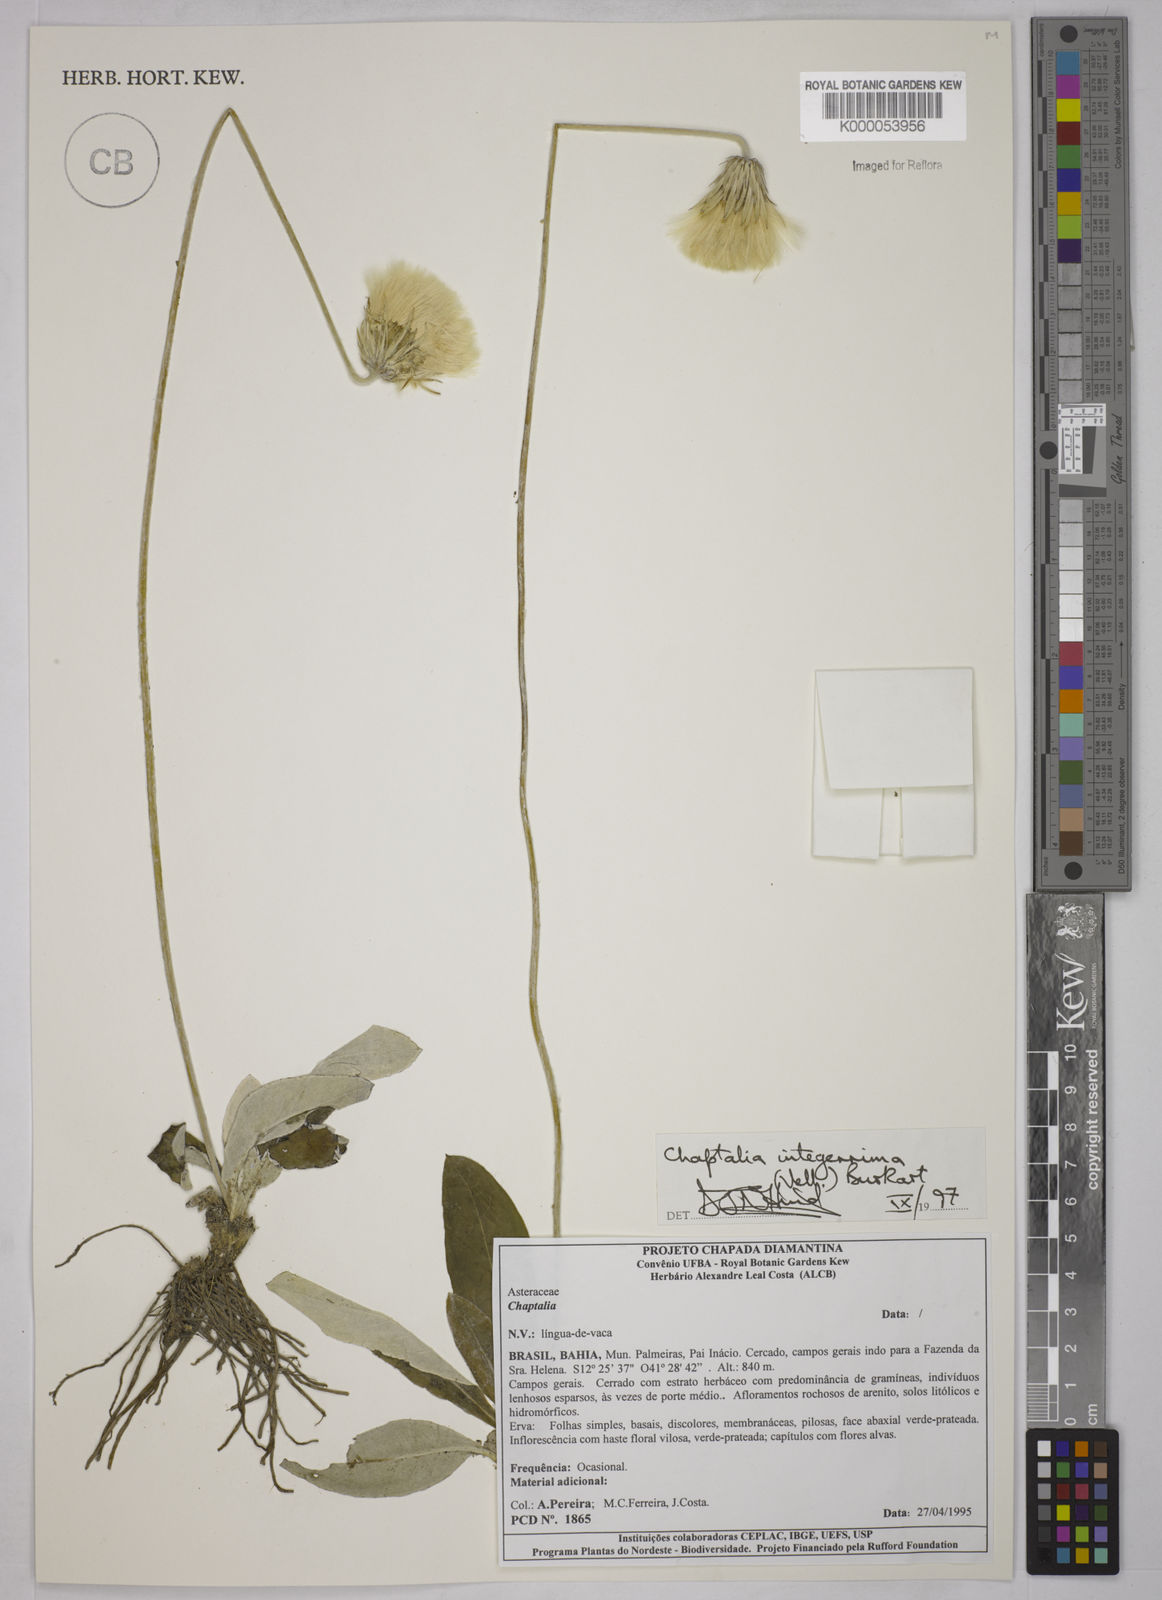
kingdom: Plantae
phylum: Tracheophyta
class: Magnoliopsida
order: Asterales
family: Asteraceae
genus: Chaptalia
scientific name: Chaptalia integerrima
